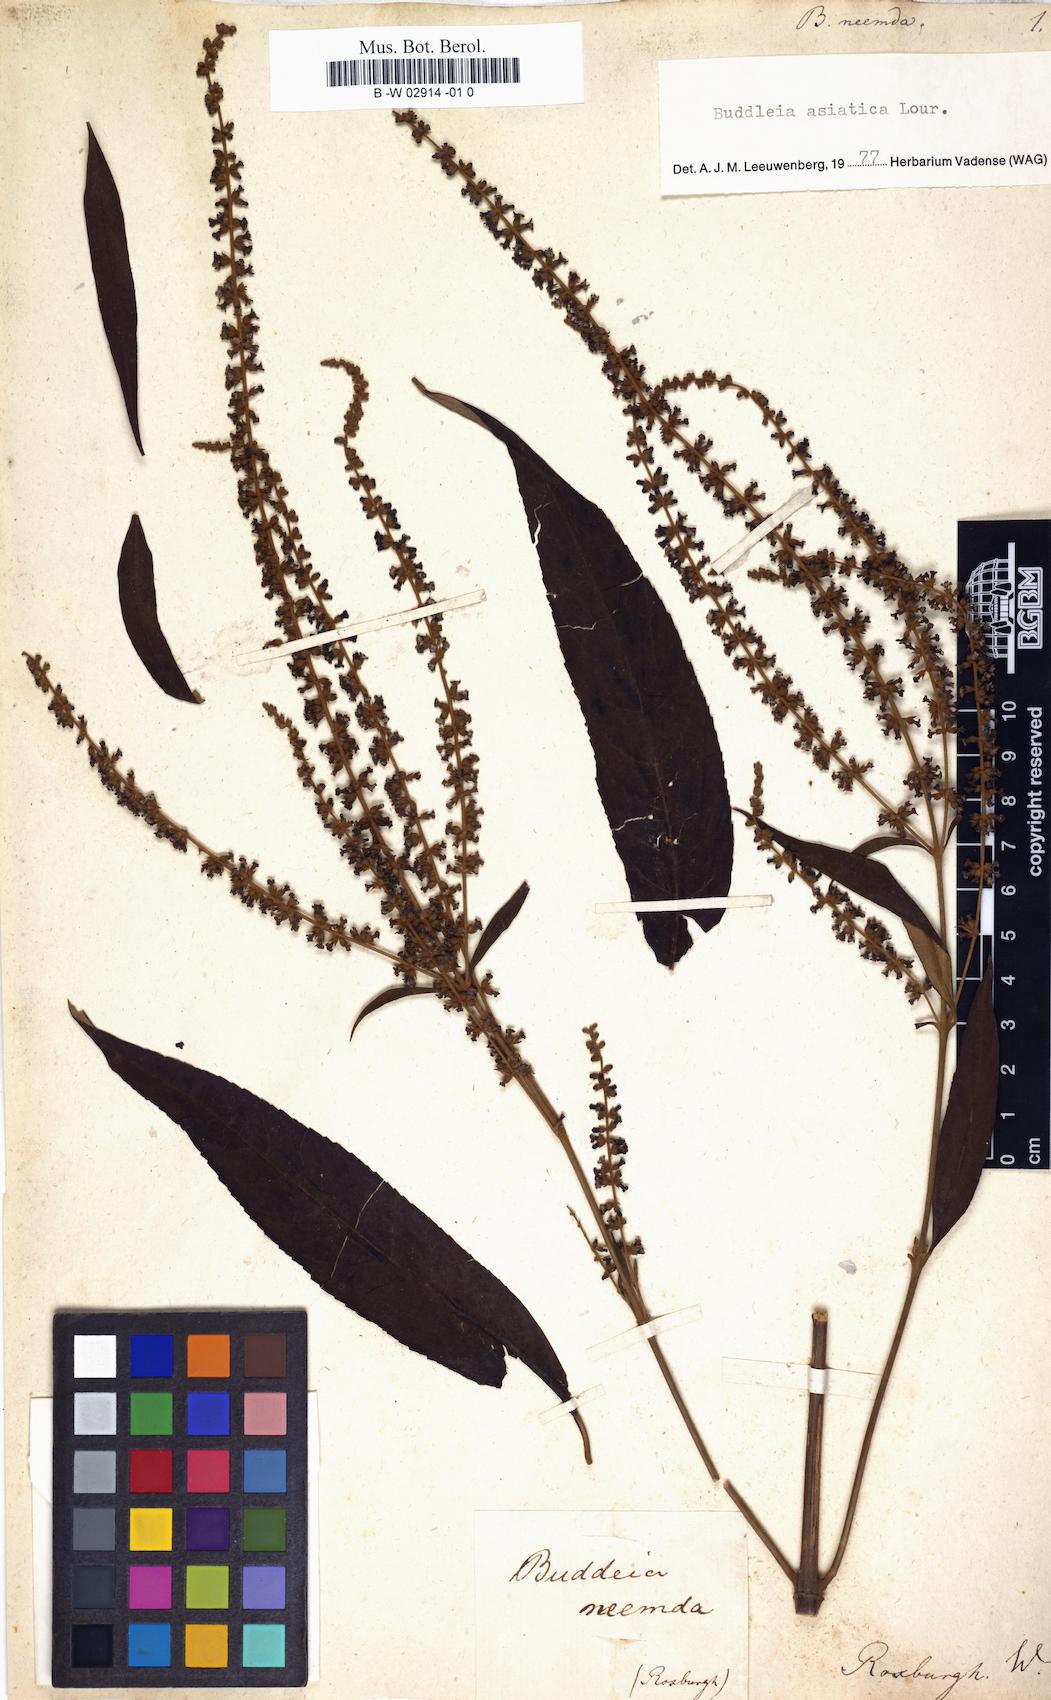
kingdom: Plantae
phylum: Tracheophyta
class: Magnoliopsida
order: Lamiales
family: Scrophulariaceae
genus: Buddleja
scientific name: Buddleja neemda
